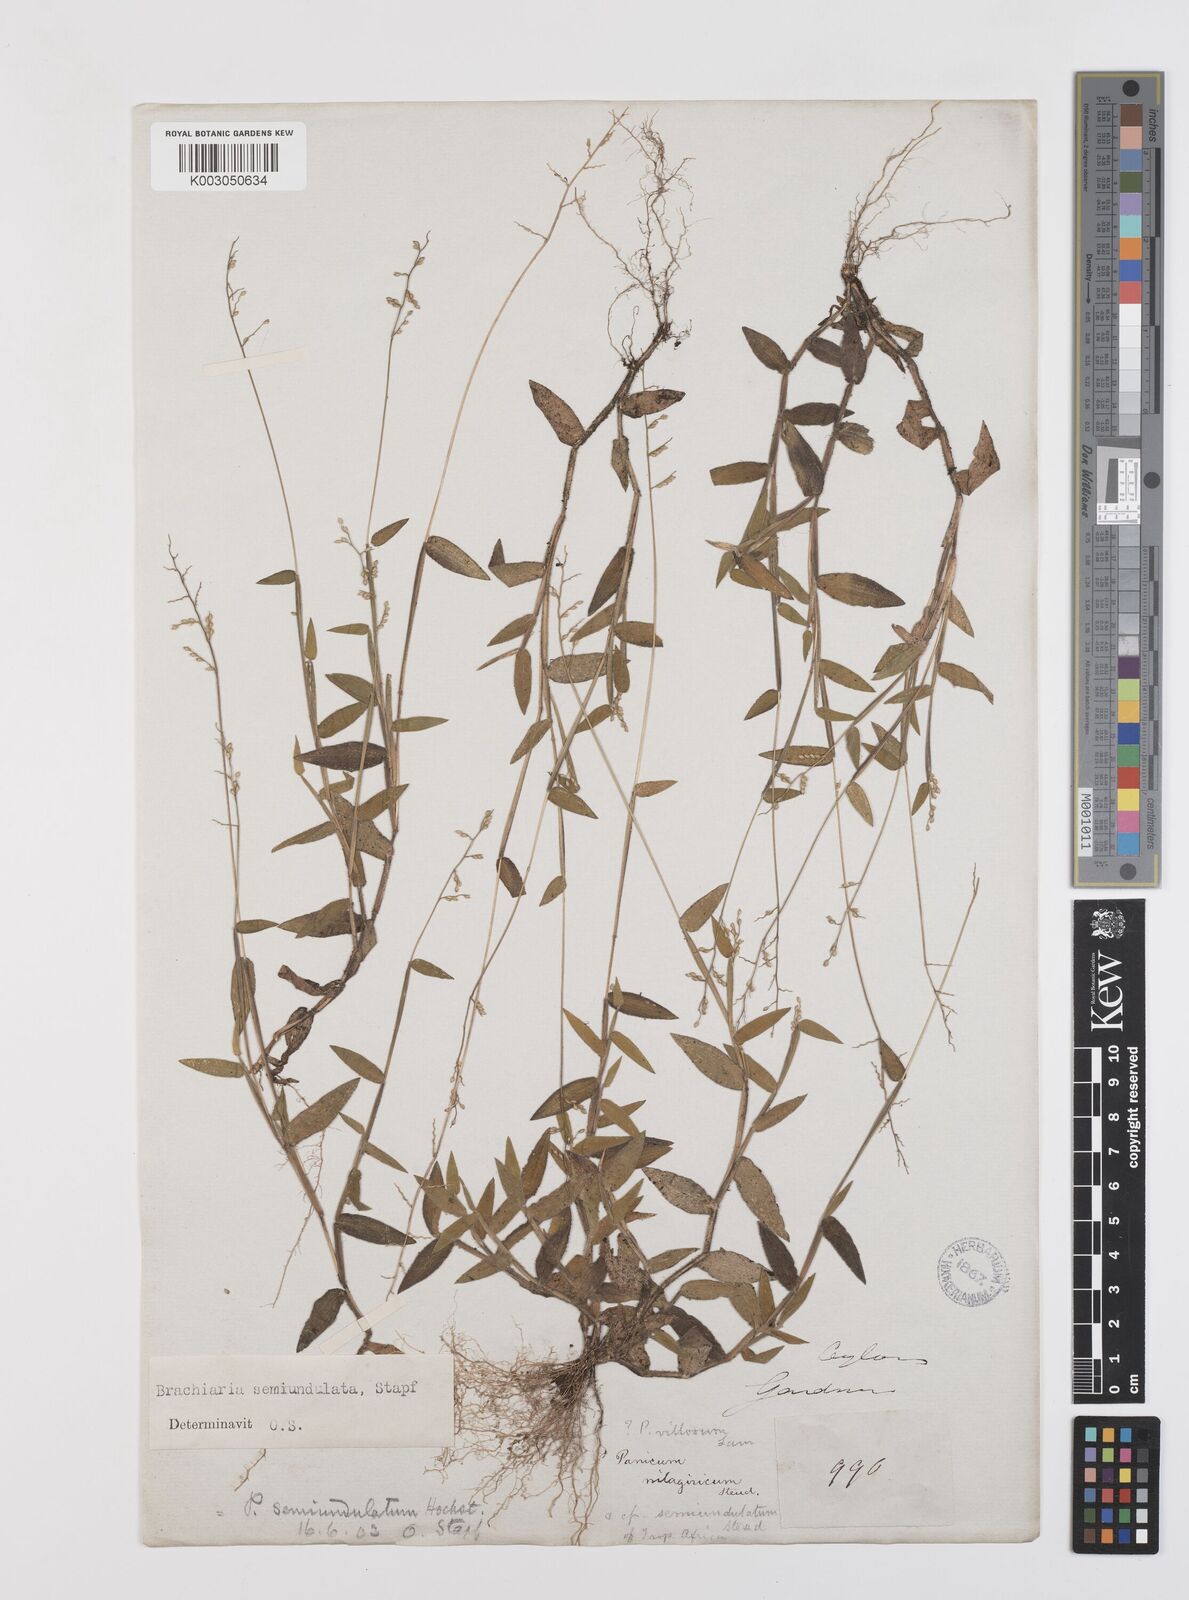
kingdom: Plantae
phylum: Tracheophyta
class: Liliopsida
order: Poales
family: Poaceae
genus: Urochloa
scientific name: Urochloa semiundulata
